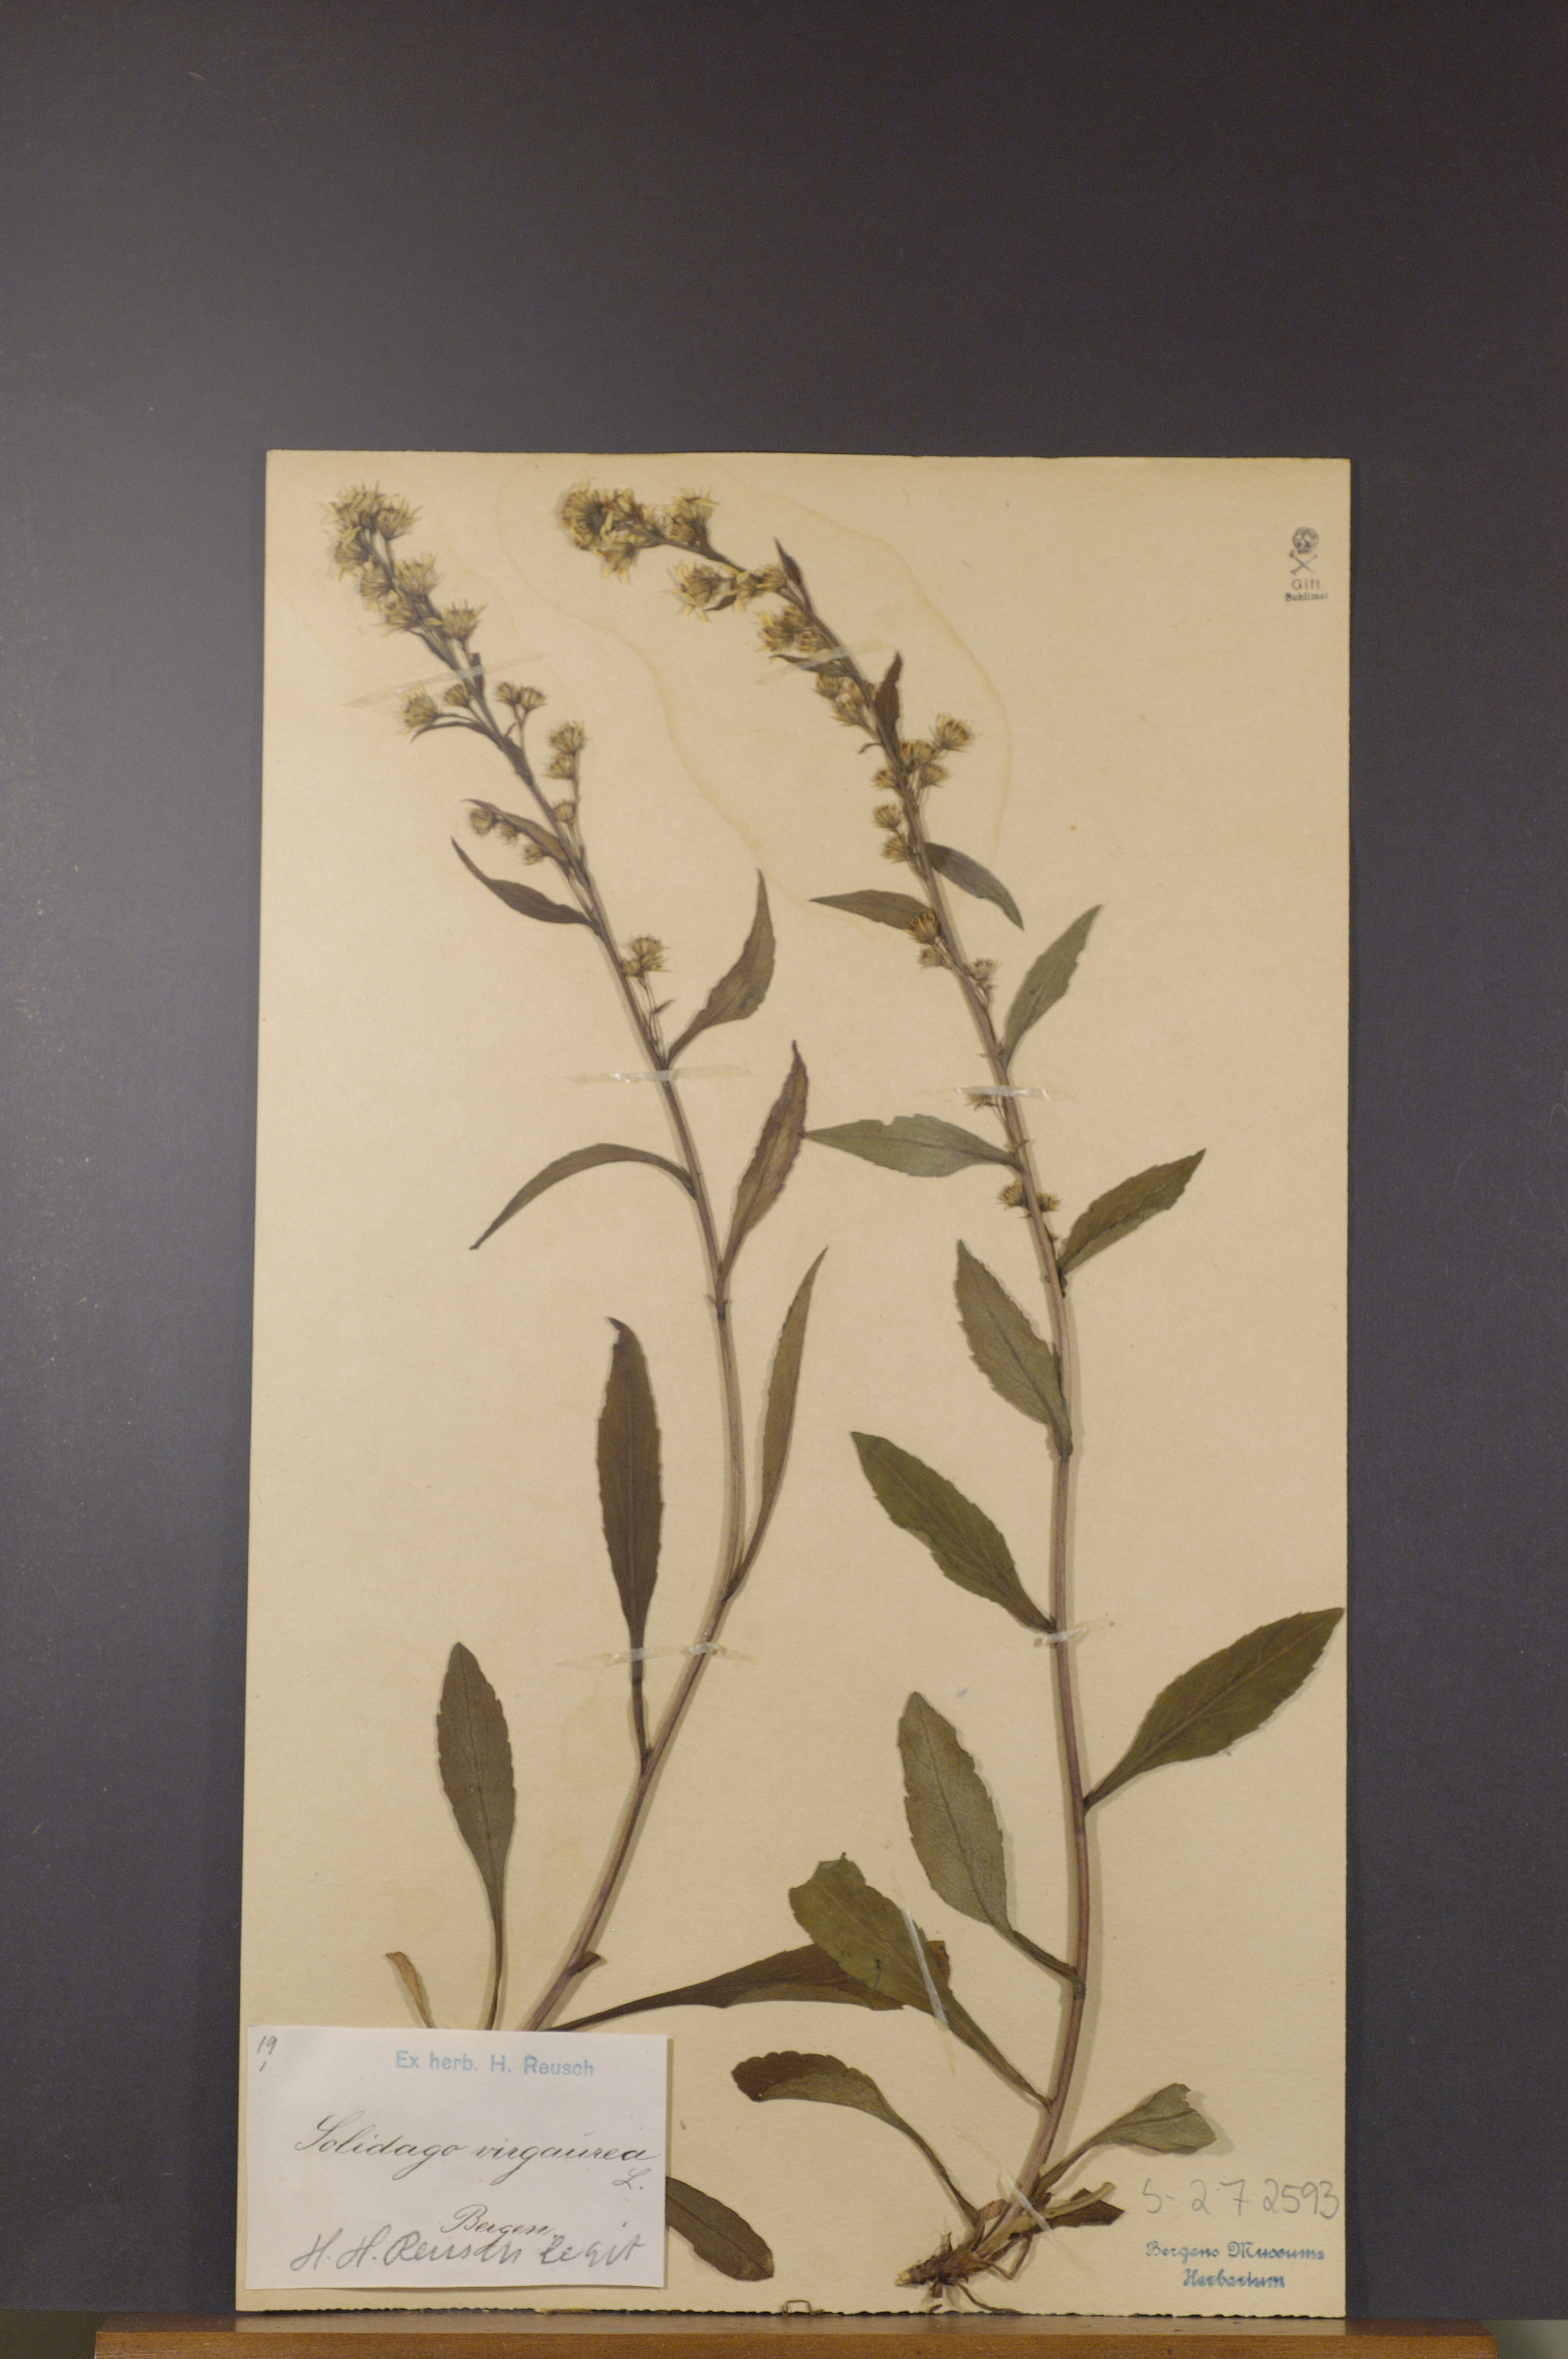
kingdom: Plantae
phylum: Tracheophyta
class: Magnoliopsida
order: Asterales
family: Asteraceae
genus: Solidago
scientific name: Solidago virgaurea
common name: Goldenrod
